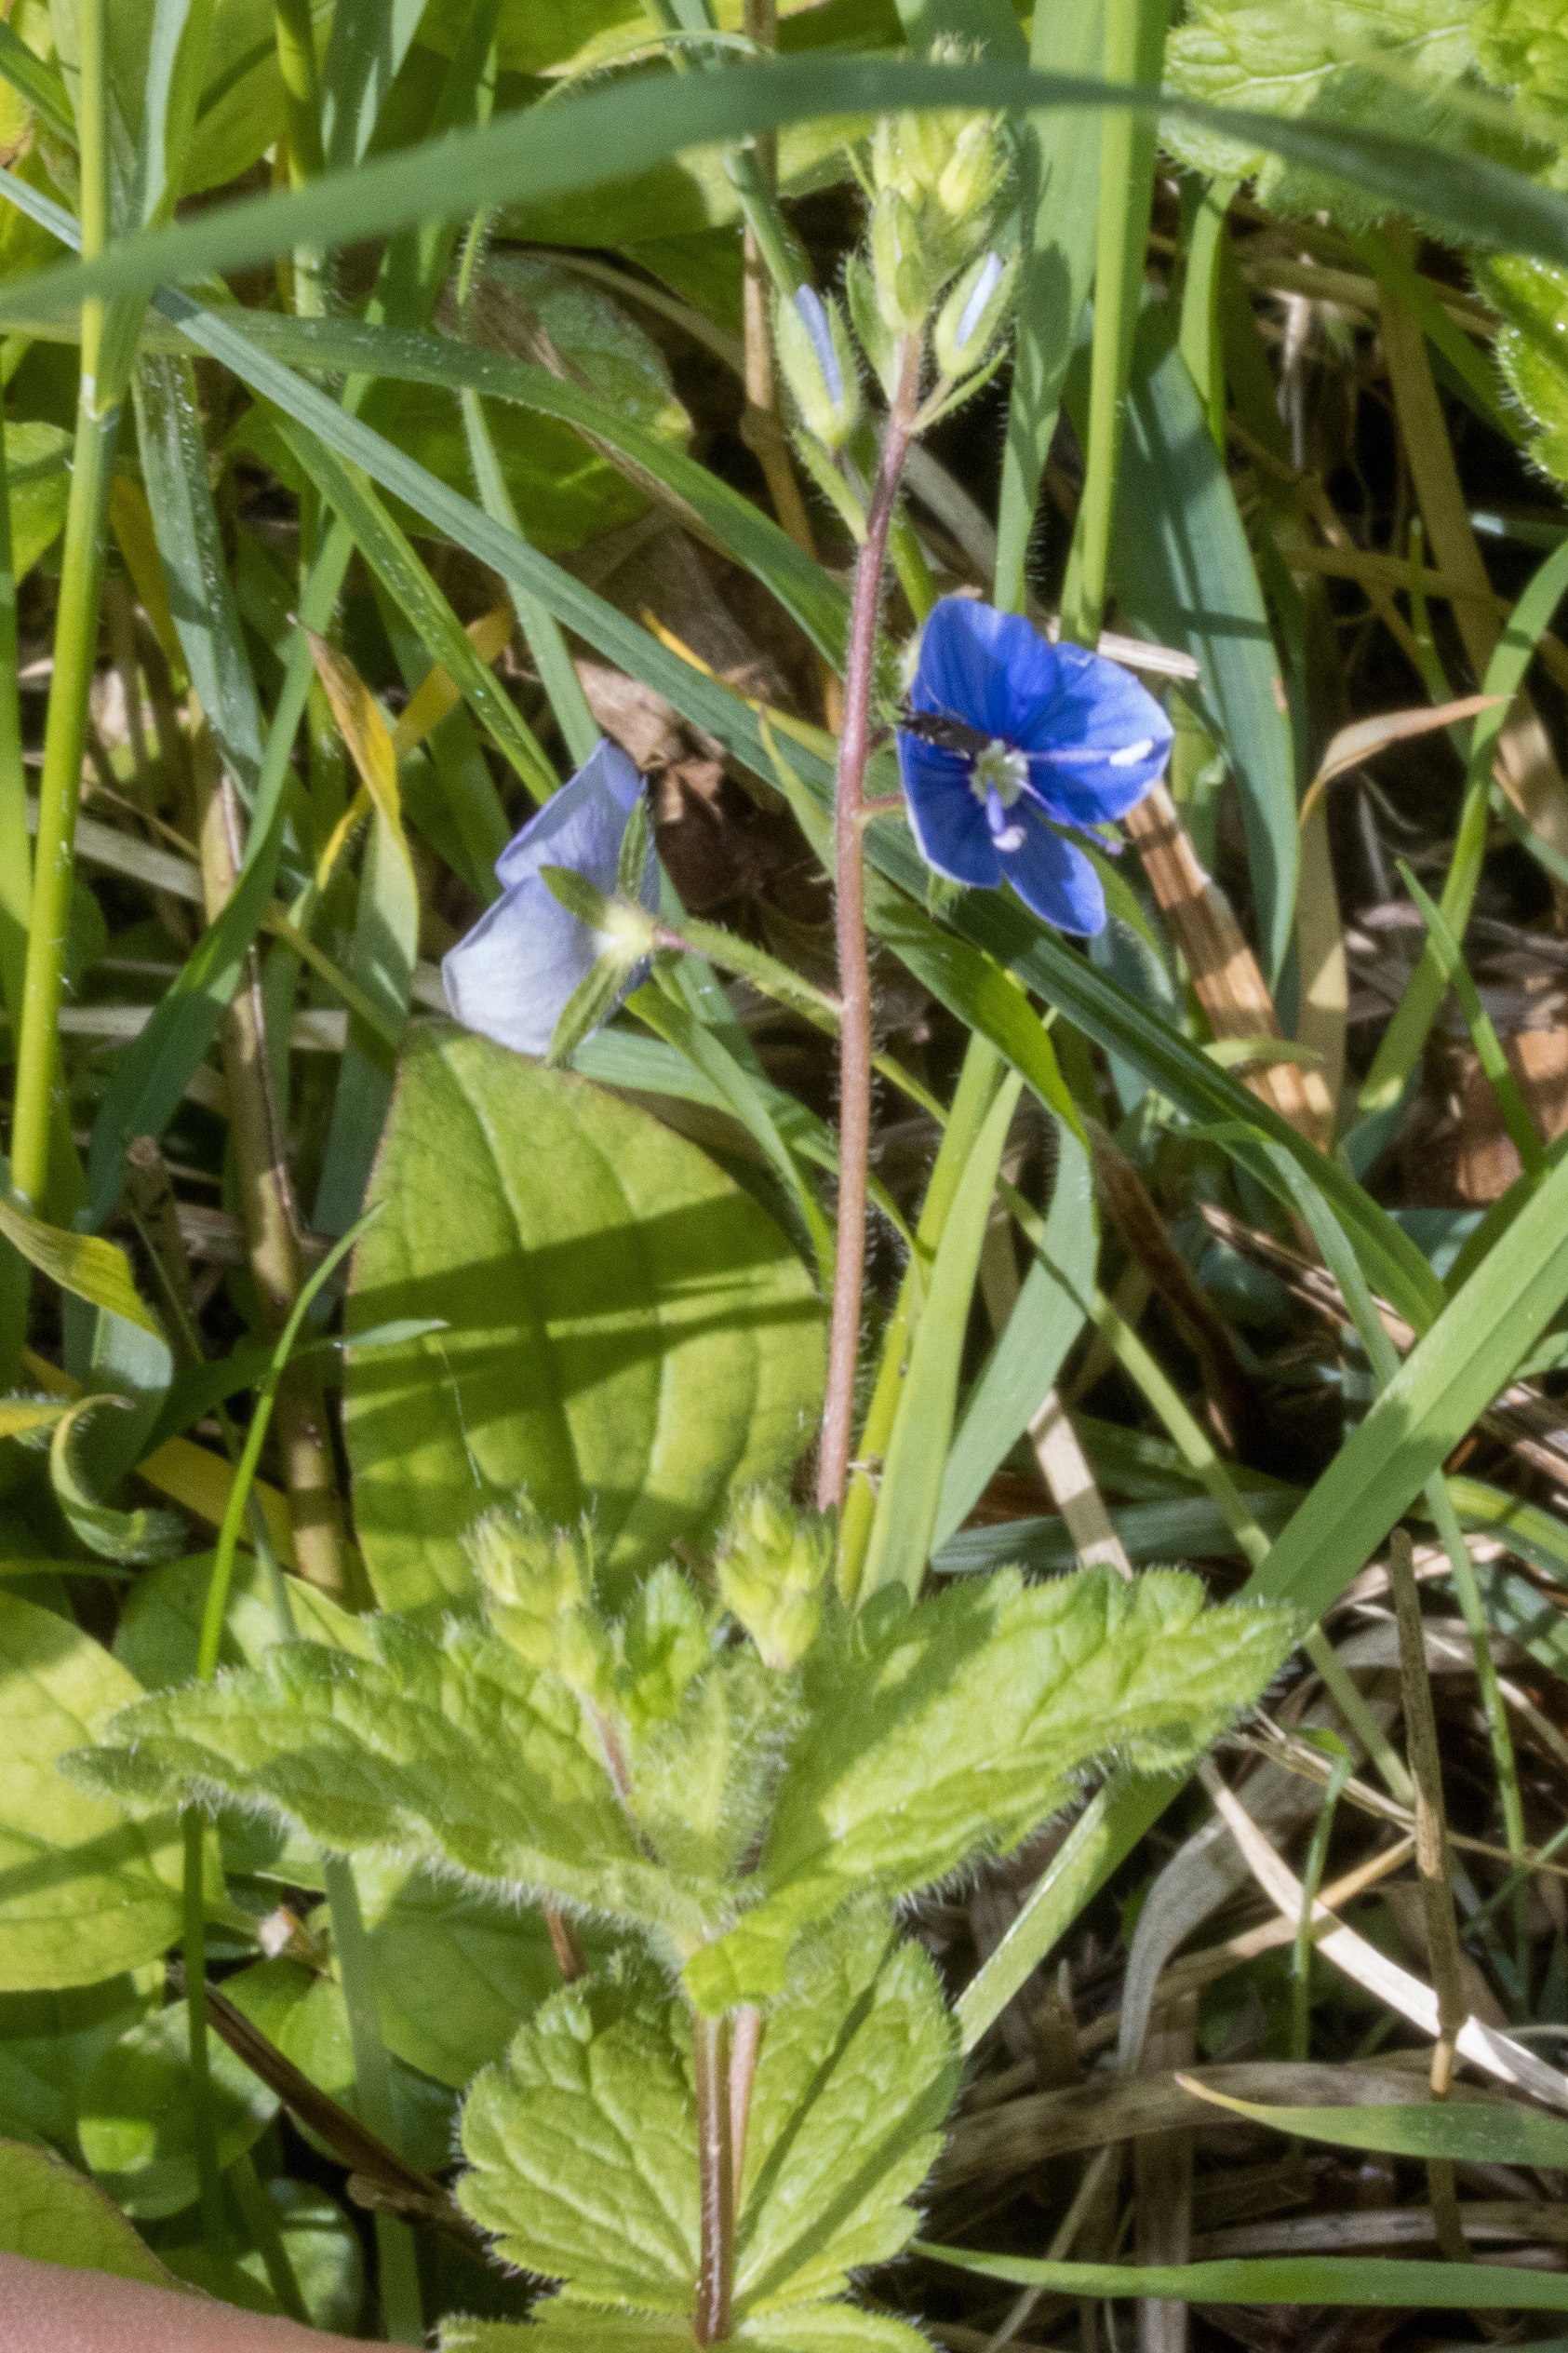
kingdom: Plantae
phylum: Tracheophyta
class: Magnoliopsida
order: Lamiales
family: Plantaginaceae
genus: Veronica
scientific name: Veronica chamaedrys
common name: Tveskægget ærenpris
